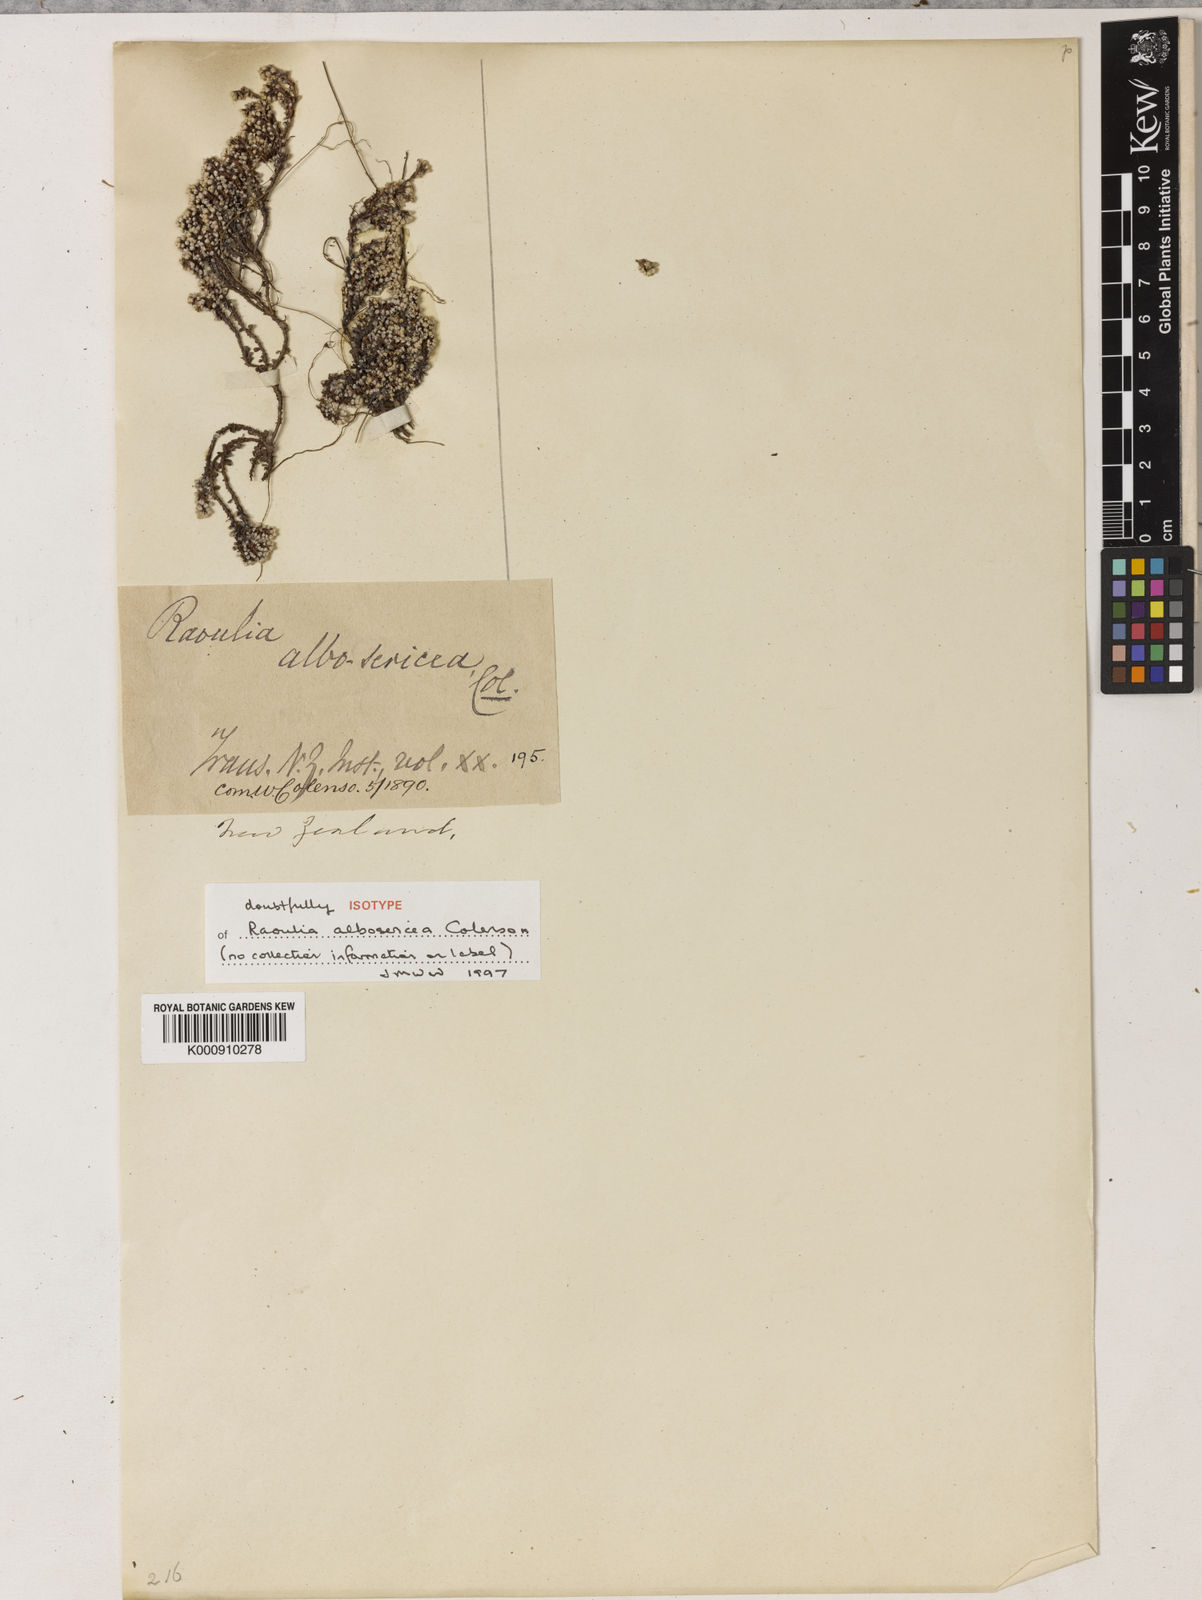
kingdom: Plantae
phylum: Tracheophyta
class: Magnoliopsida
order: Asterales
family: Asteraceae
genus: Raoulia
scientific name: Raoulia australis
